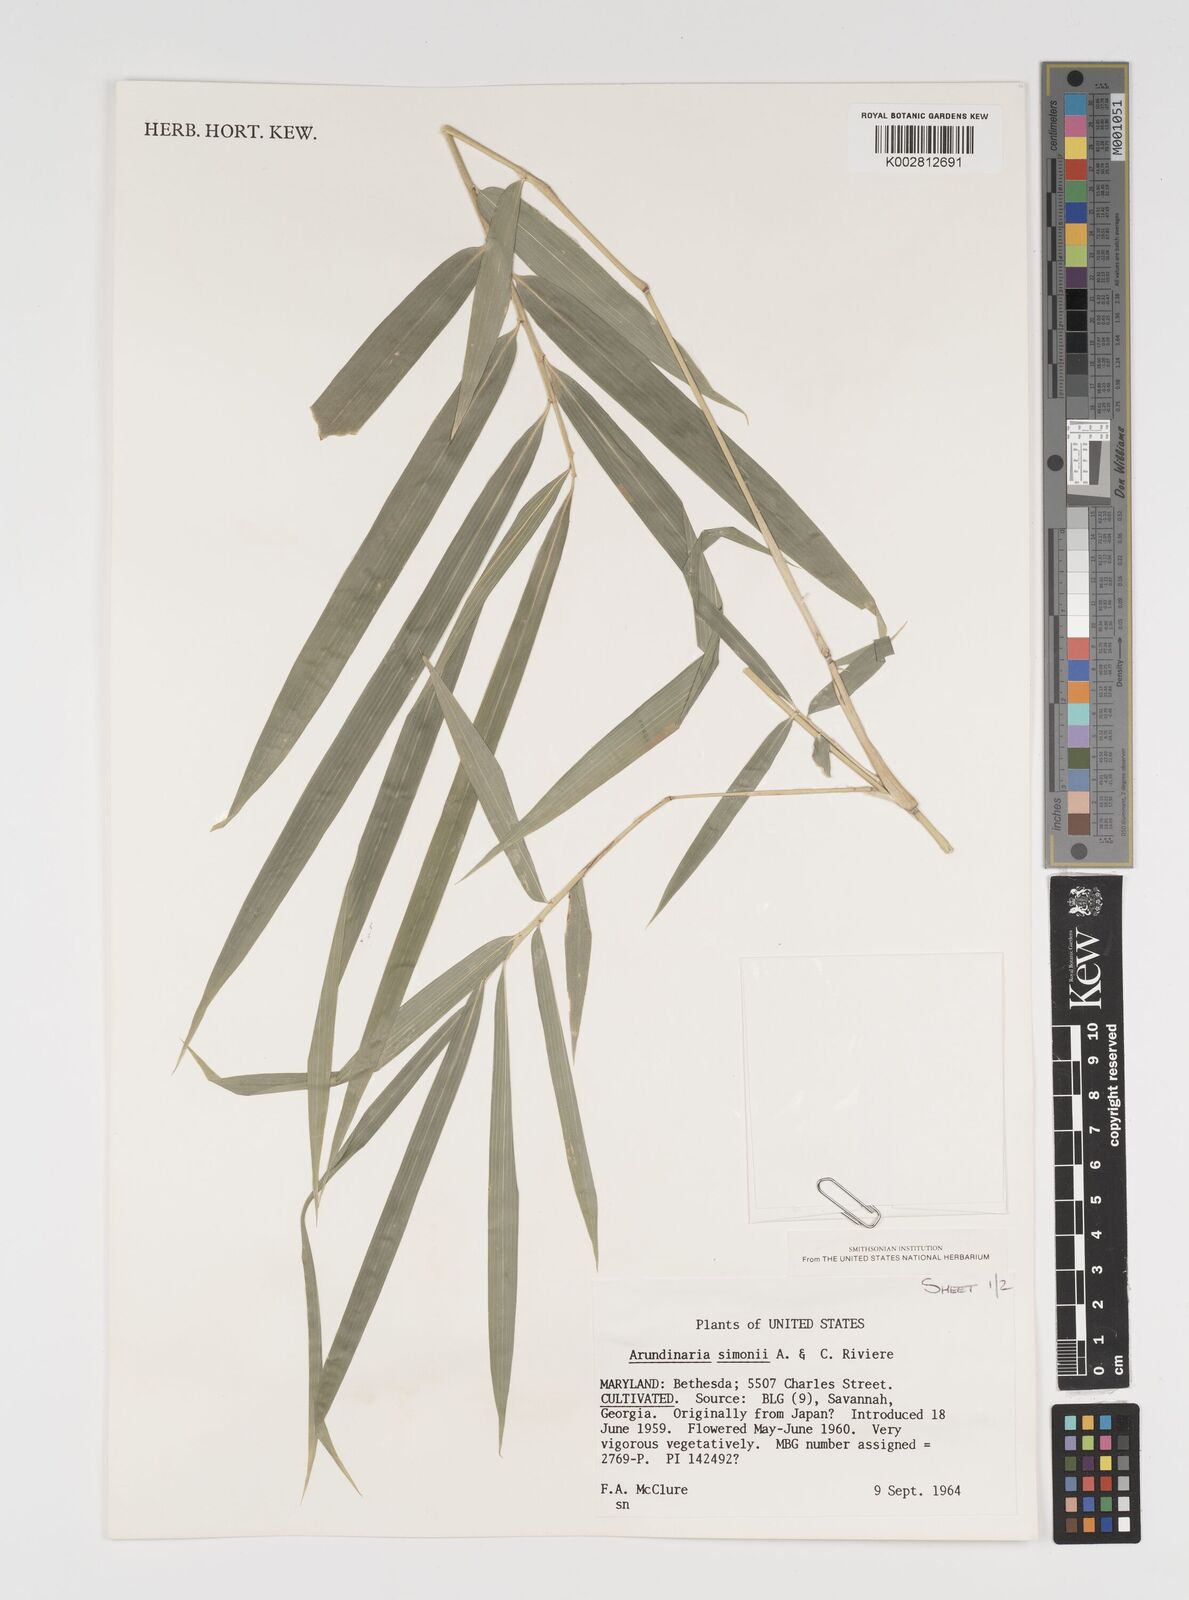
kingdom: Plantae
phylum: Tracheophyta
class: Liliopsida
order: Poales
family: Poaceae
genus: Arundinaria
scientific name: Arundinaria
